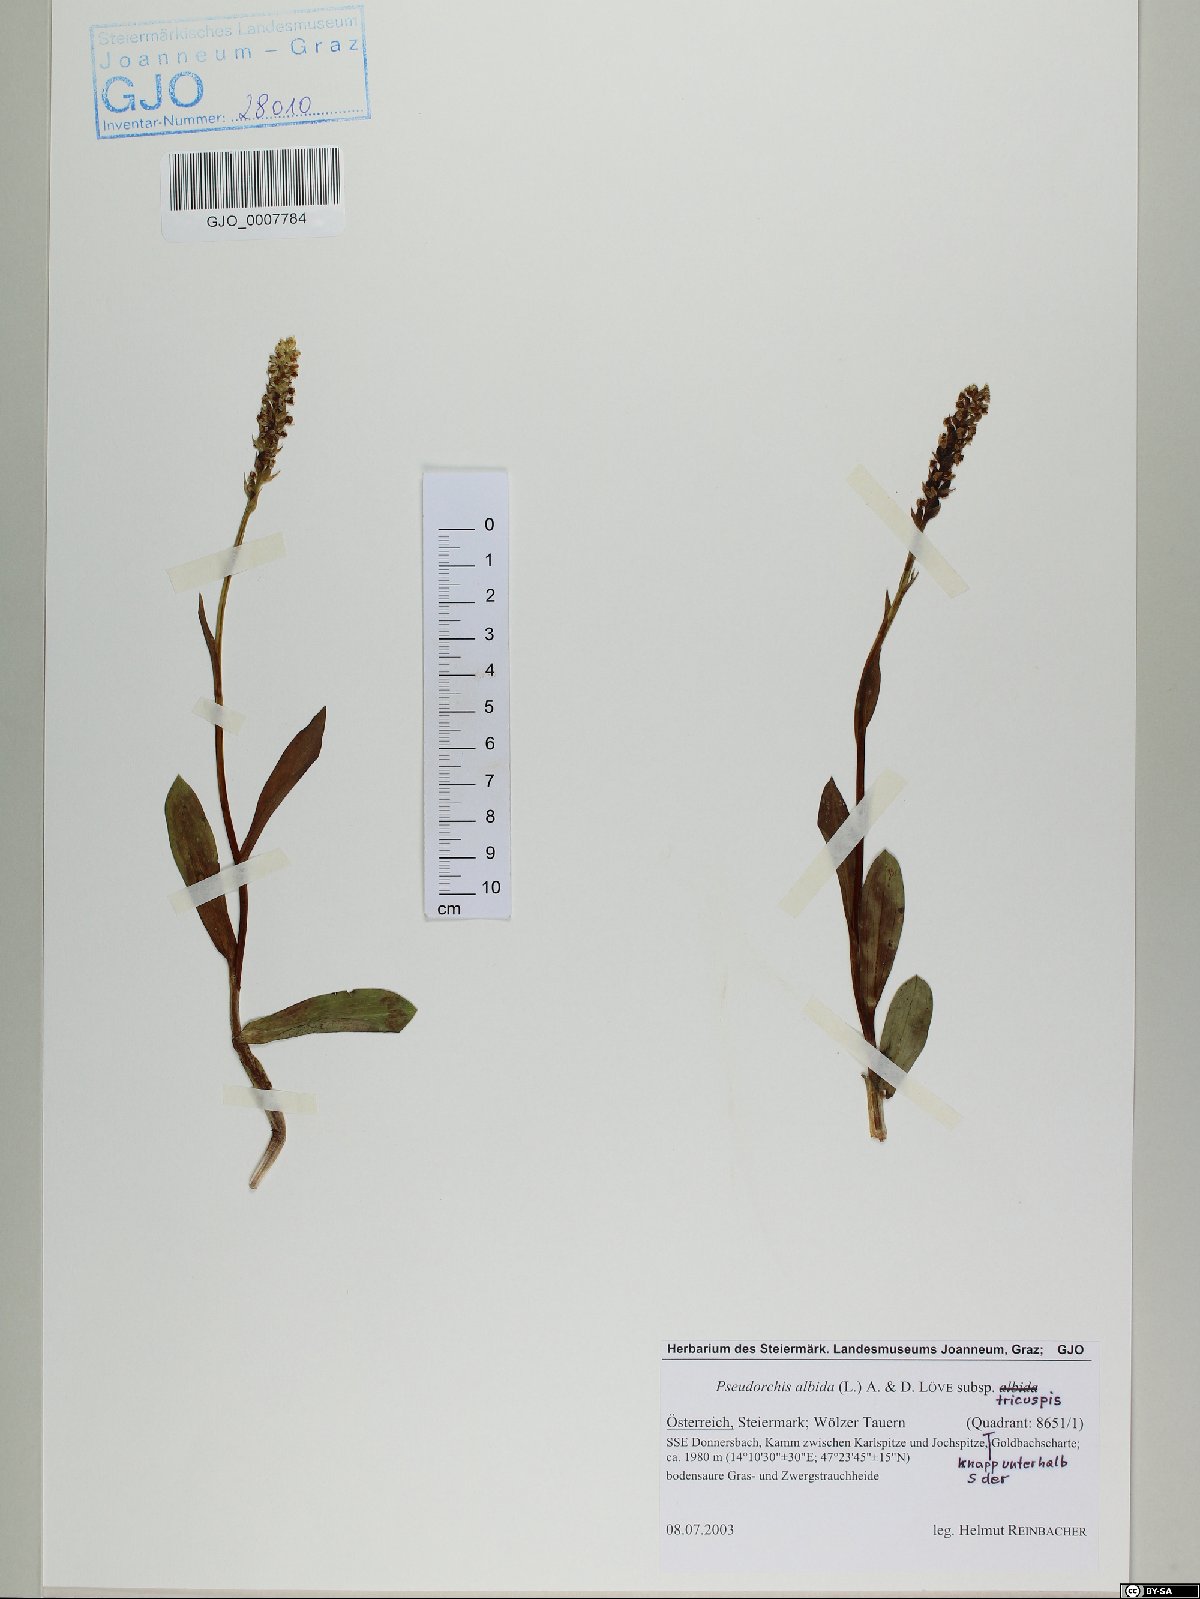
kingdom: Plantae
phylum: Tracheophyta
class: Liliopsida
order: Asparagales
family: Orchidaceae
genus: Pseudorchis
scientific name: Pseudorchis albida
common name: Small-white orchid
